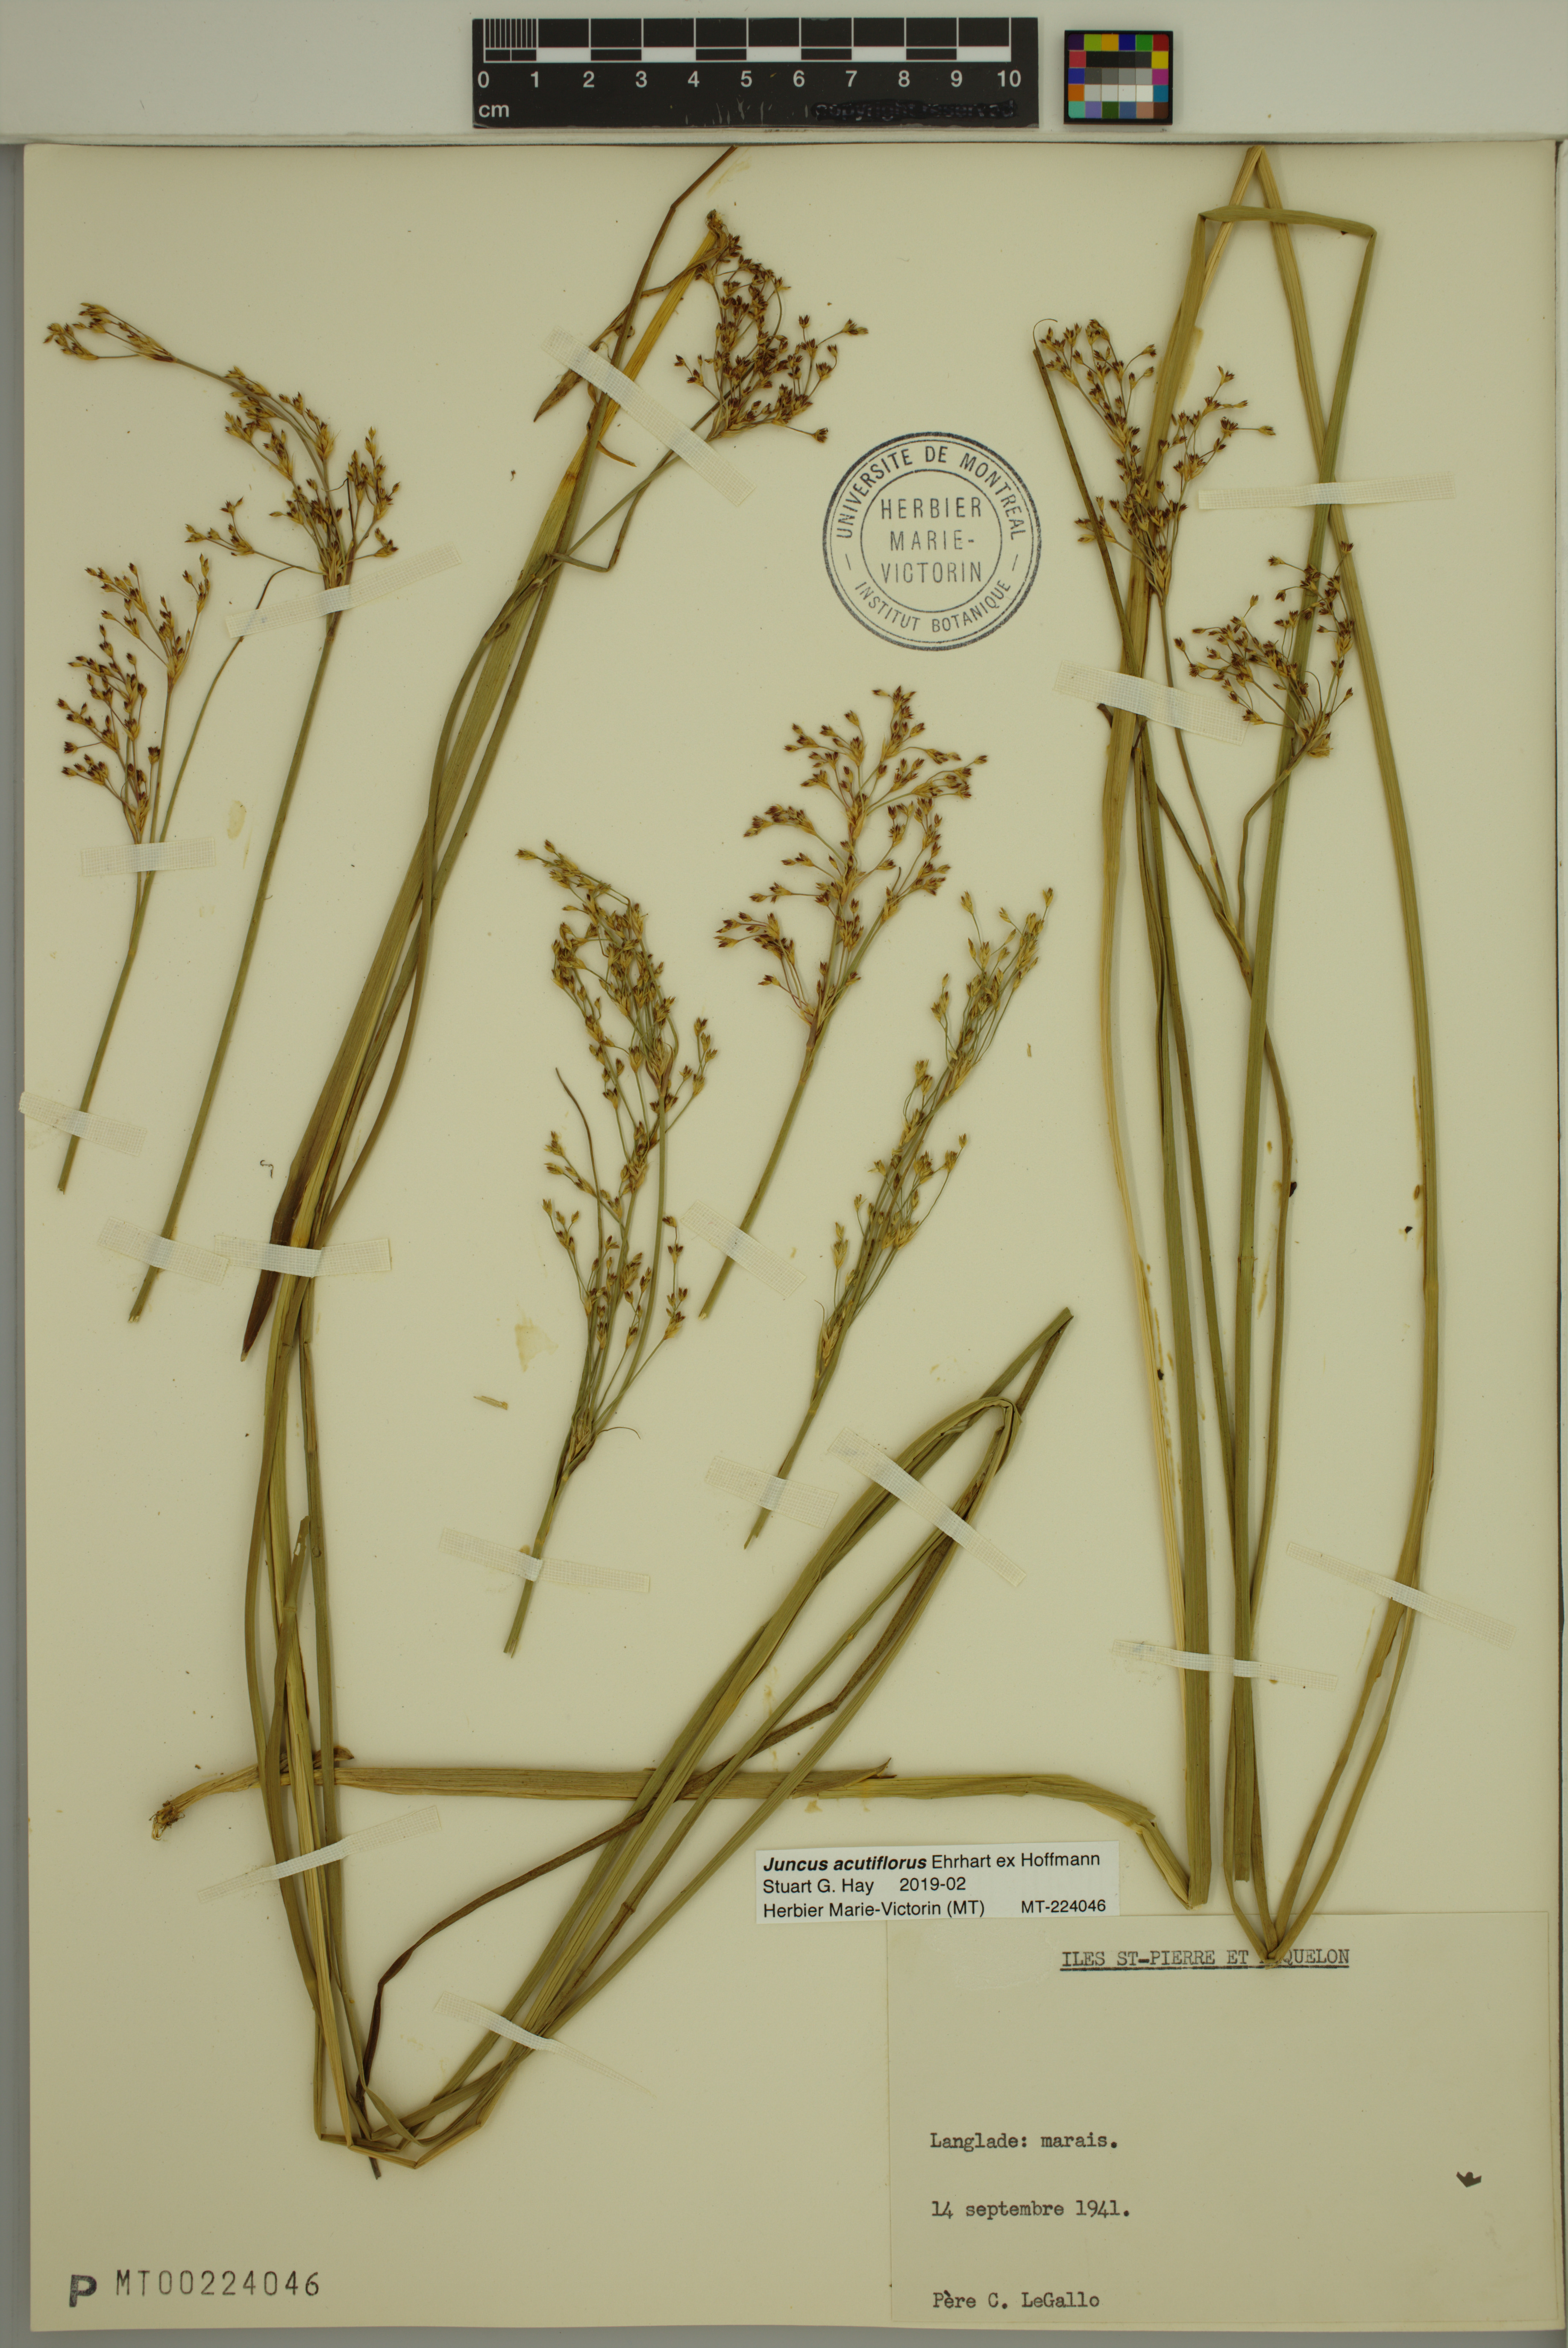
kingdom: Plantae
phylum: Tracheophyta
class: Liliopsida
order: Poales
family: Juncaceae
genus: Juncus
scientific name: Juncus acutiflorus
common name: Sharp-flowered rush
